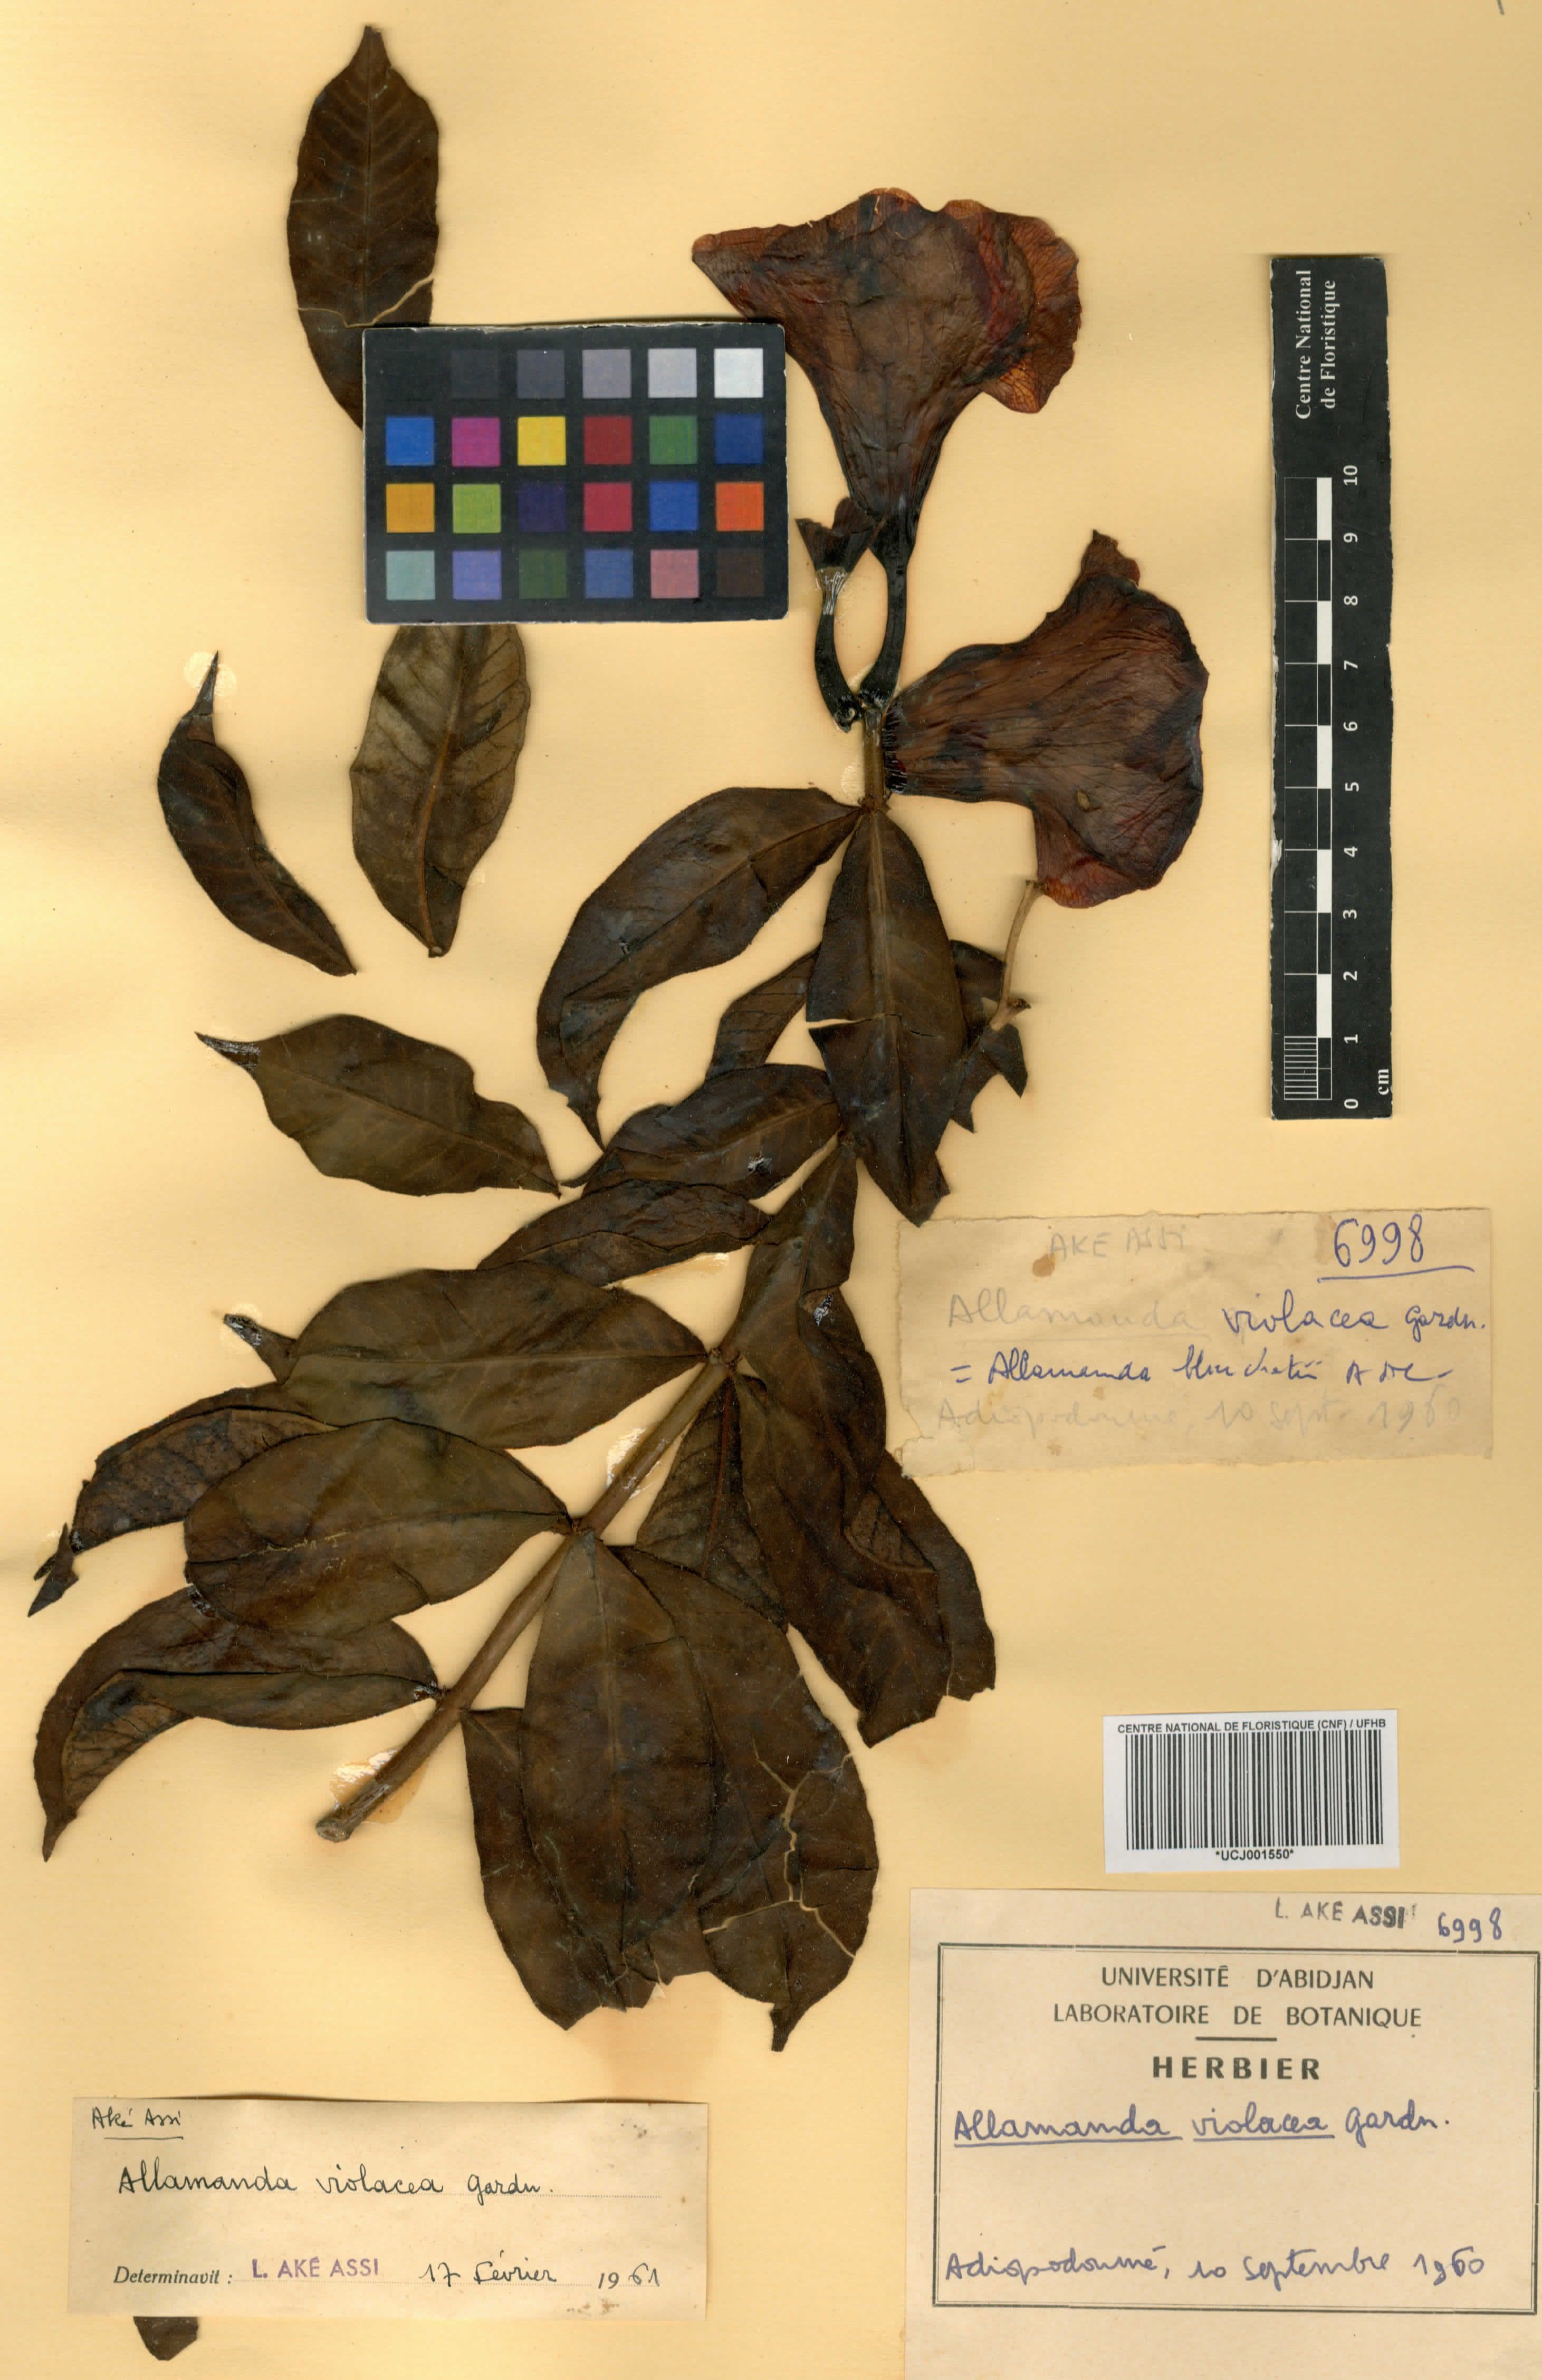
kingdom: Plantae
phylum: Tracheophyta
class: Magnoliopsida
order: Gentianales
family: Apocynaceae
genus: Allamanda
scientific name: Allamanda blanchetii
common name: Purple allamanda
